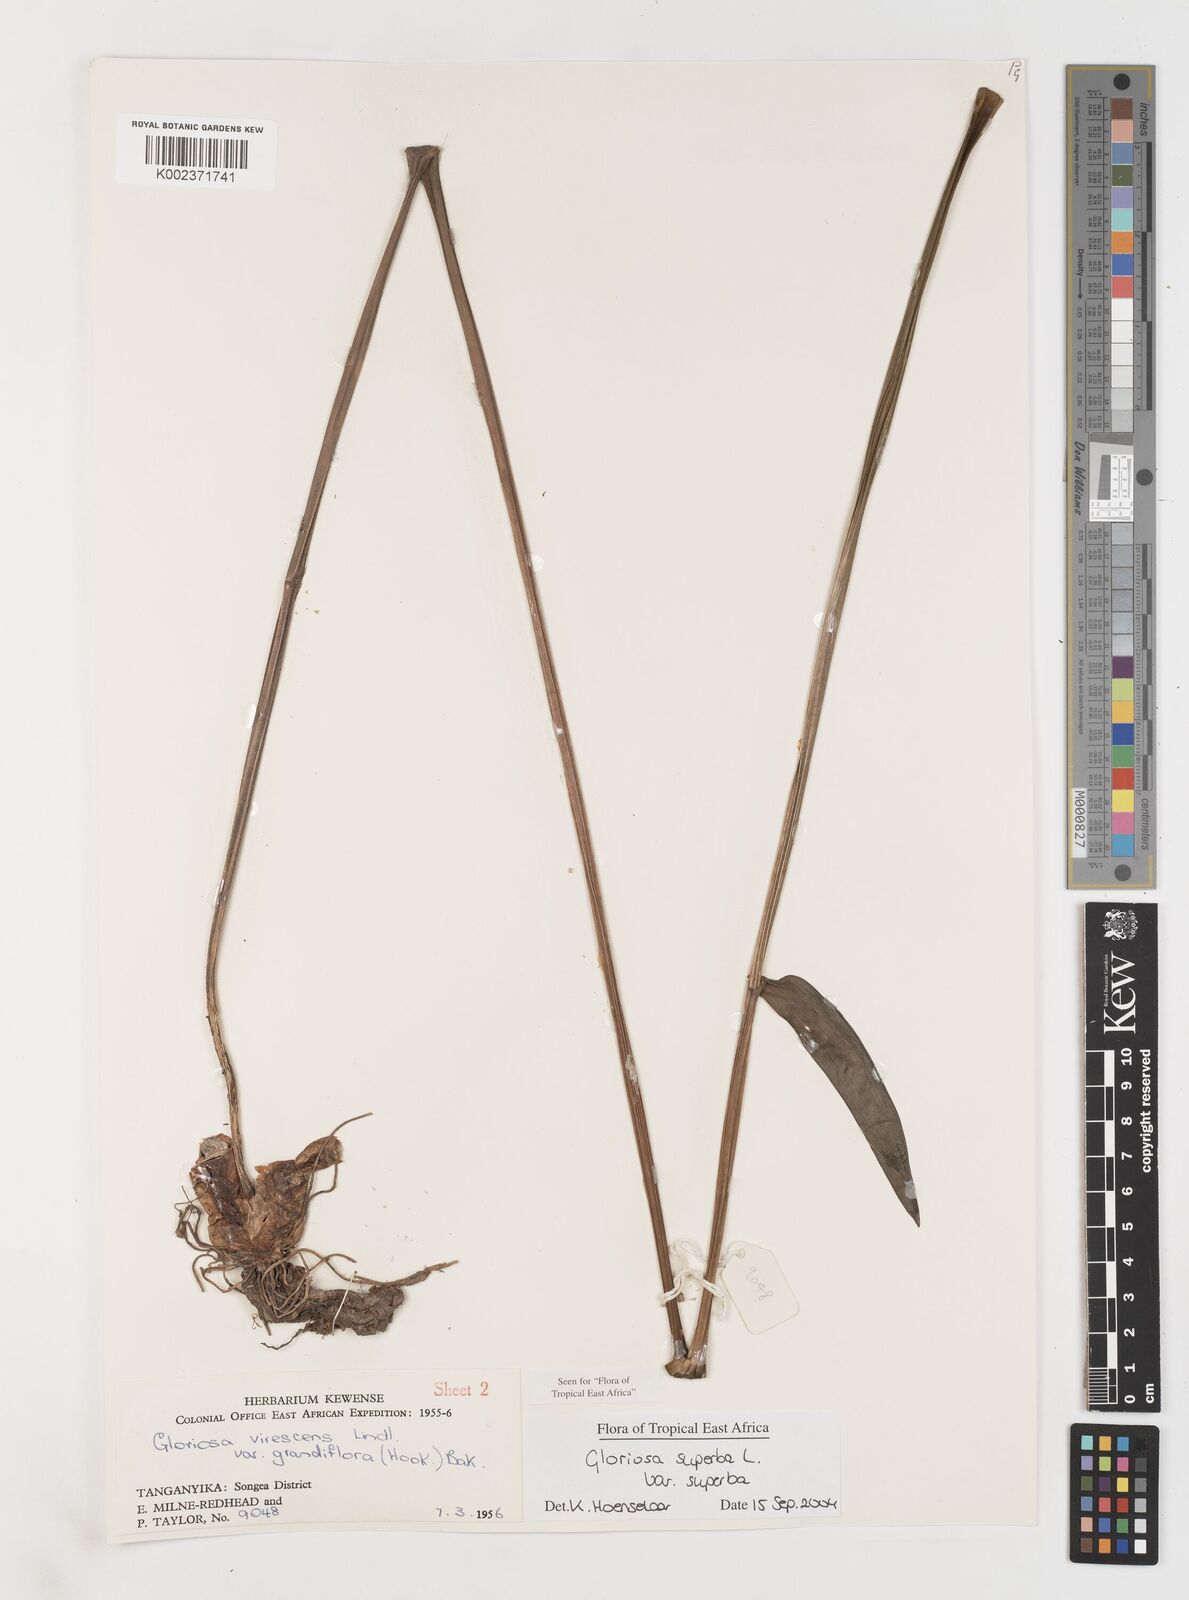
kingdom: Plantae
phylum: Tracheophyta
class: Liliopsida
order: Liliales
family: Colchicaceae
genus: Gloriosa
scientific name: Gloriosa simplex
